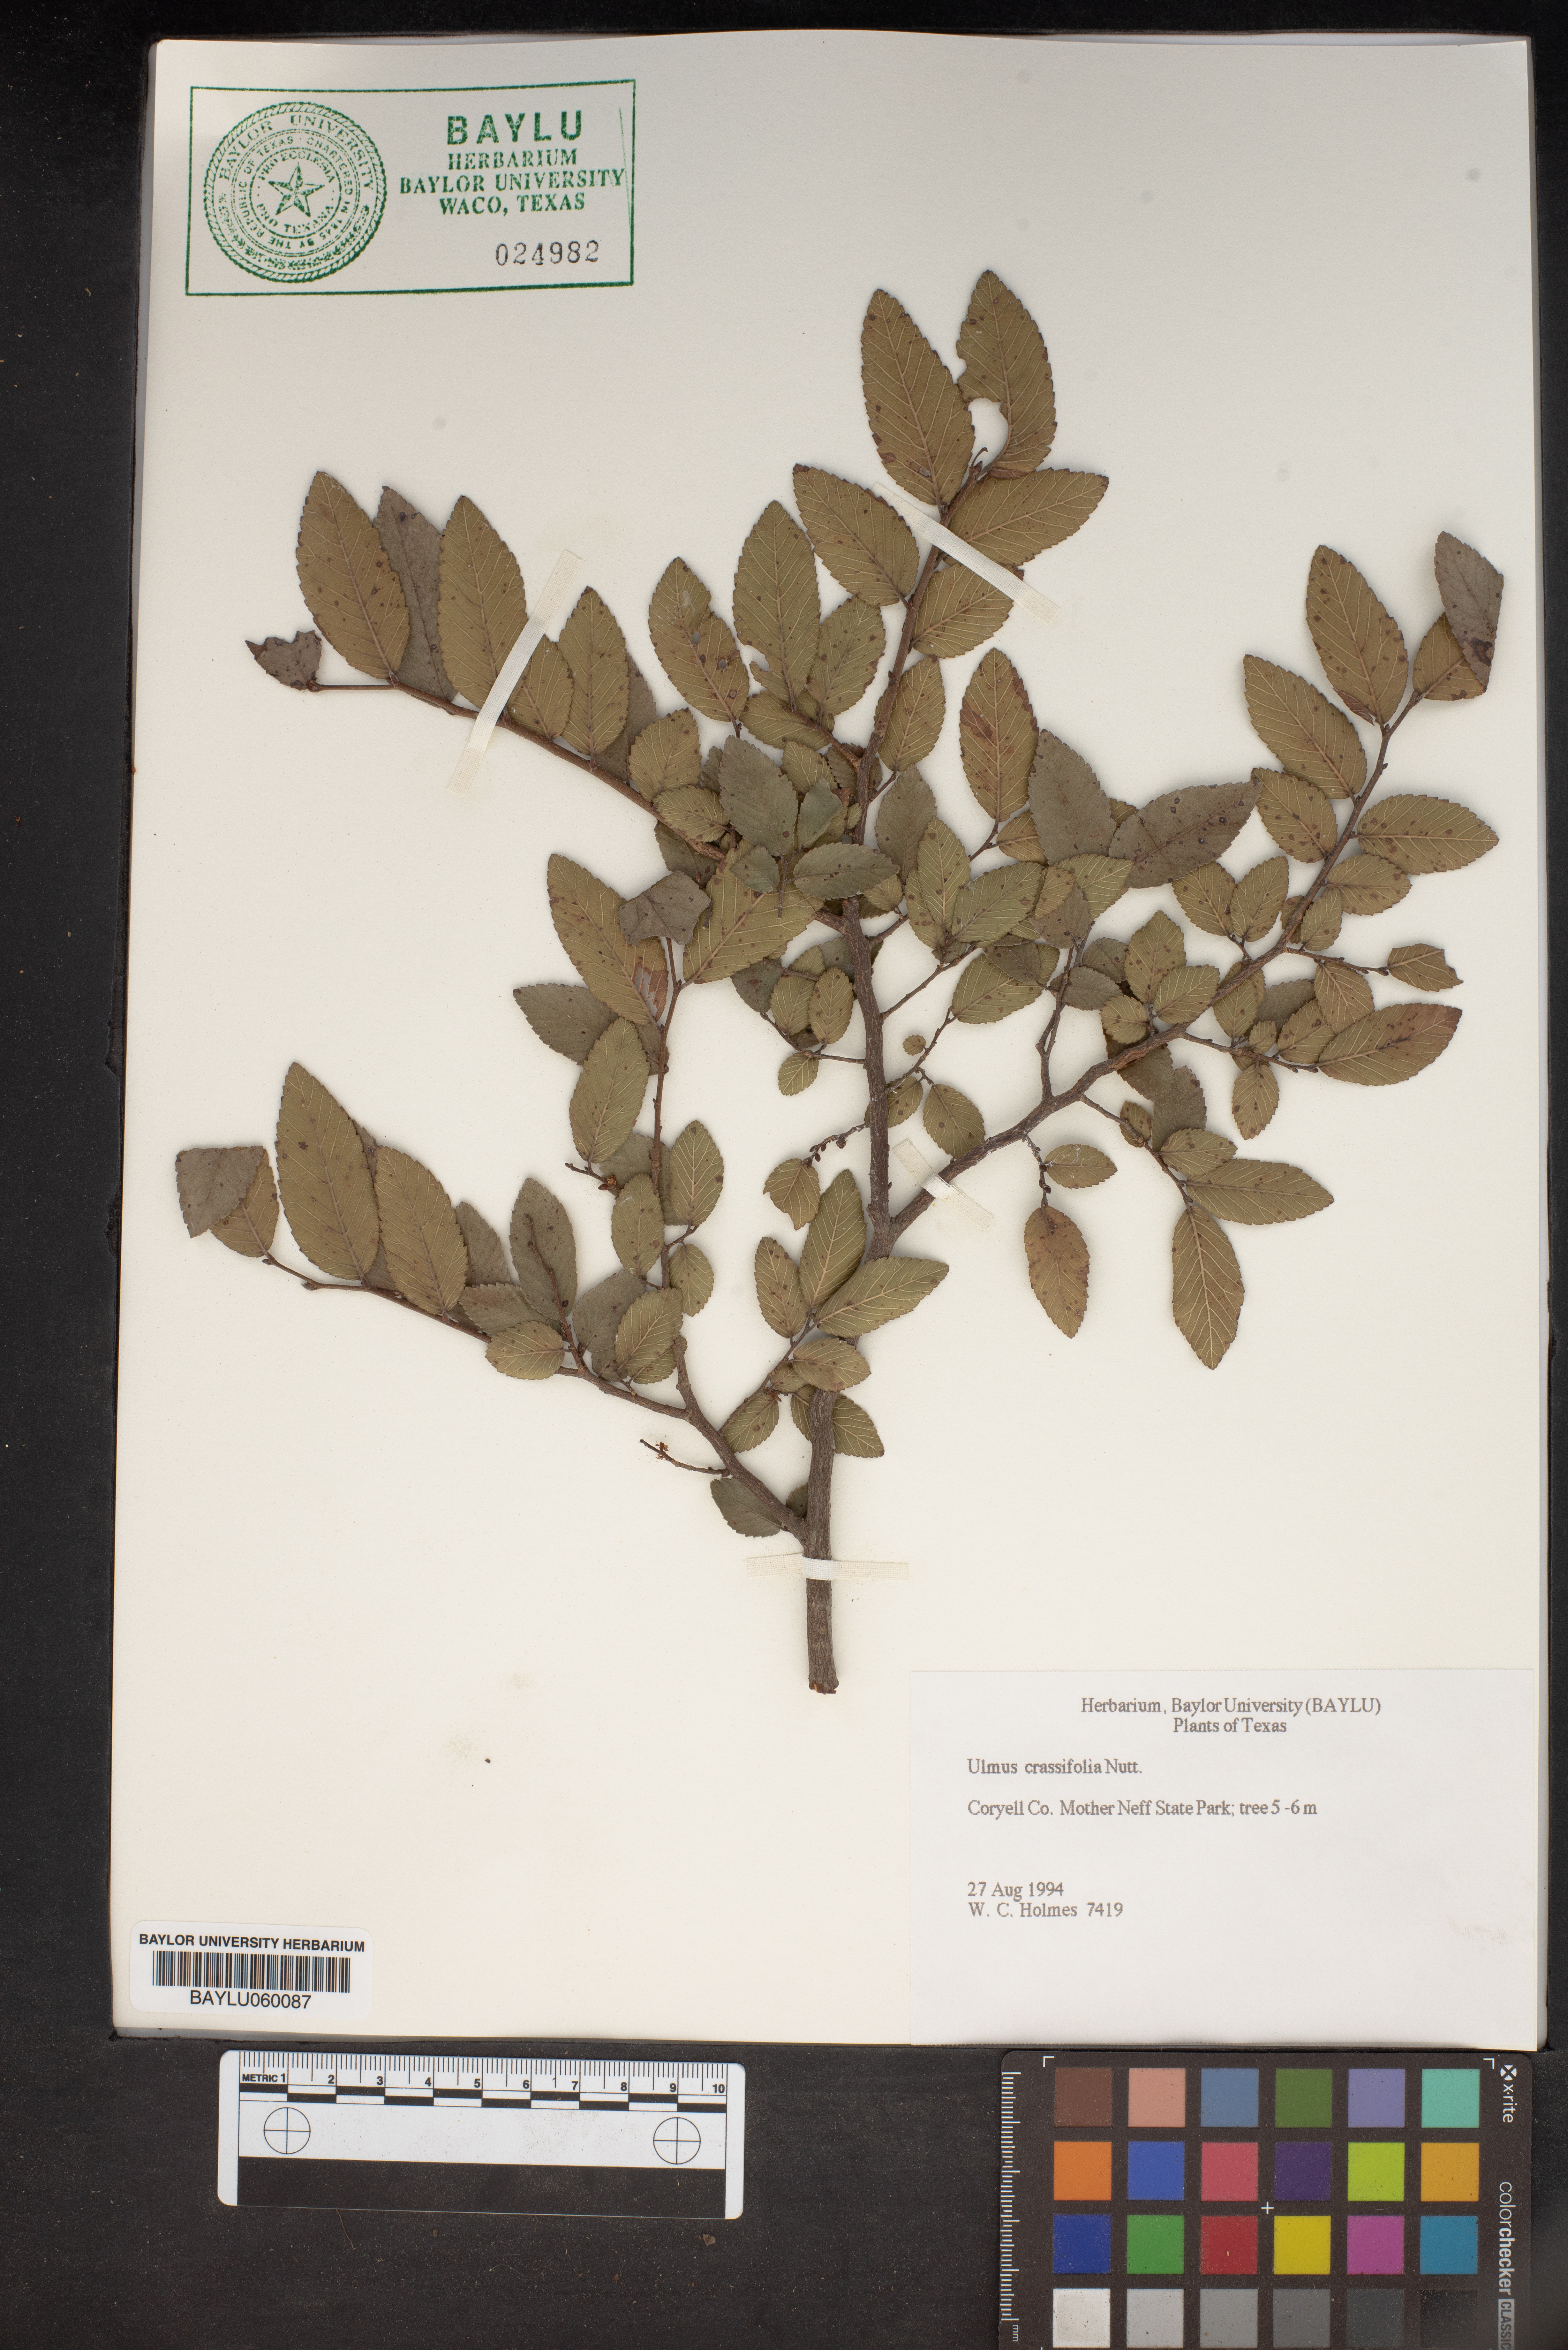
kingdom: Plantae
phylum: Tracheophyta
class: Magnoliopsida
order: Rosales
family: Ulmaceae
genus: Ulmus
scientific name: Ulmus crassifolia
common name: Basket elm
